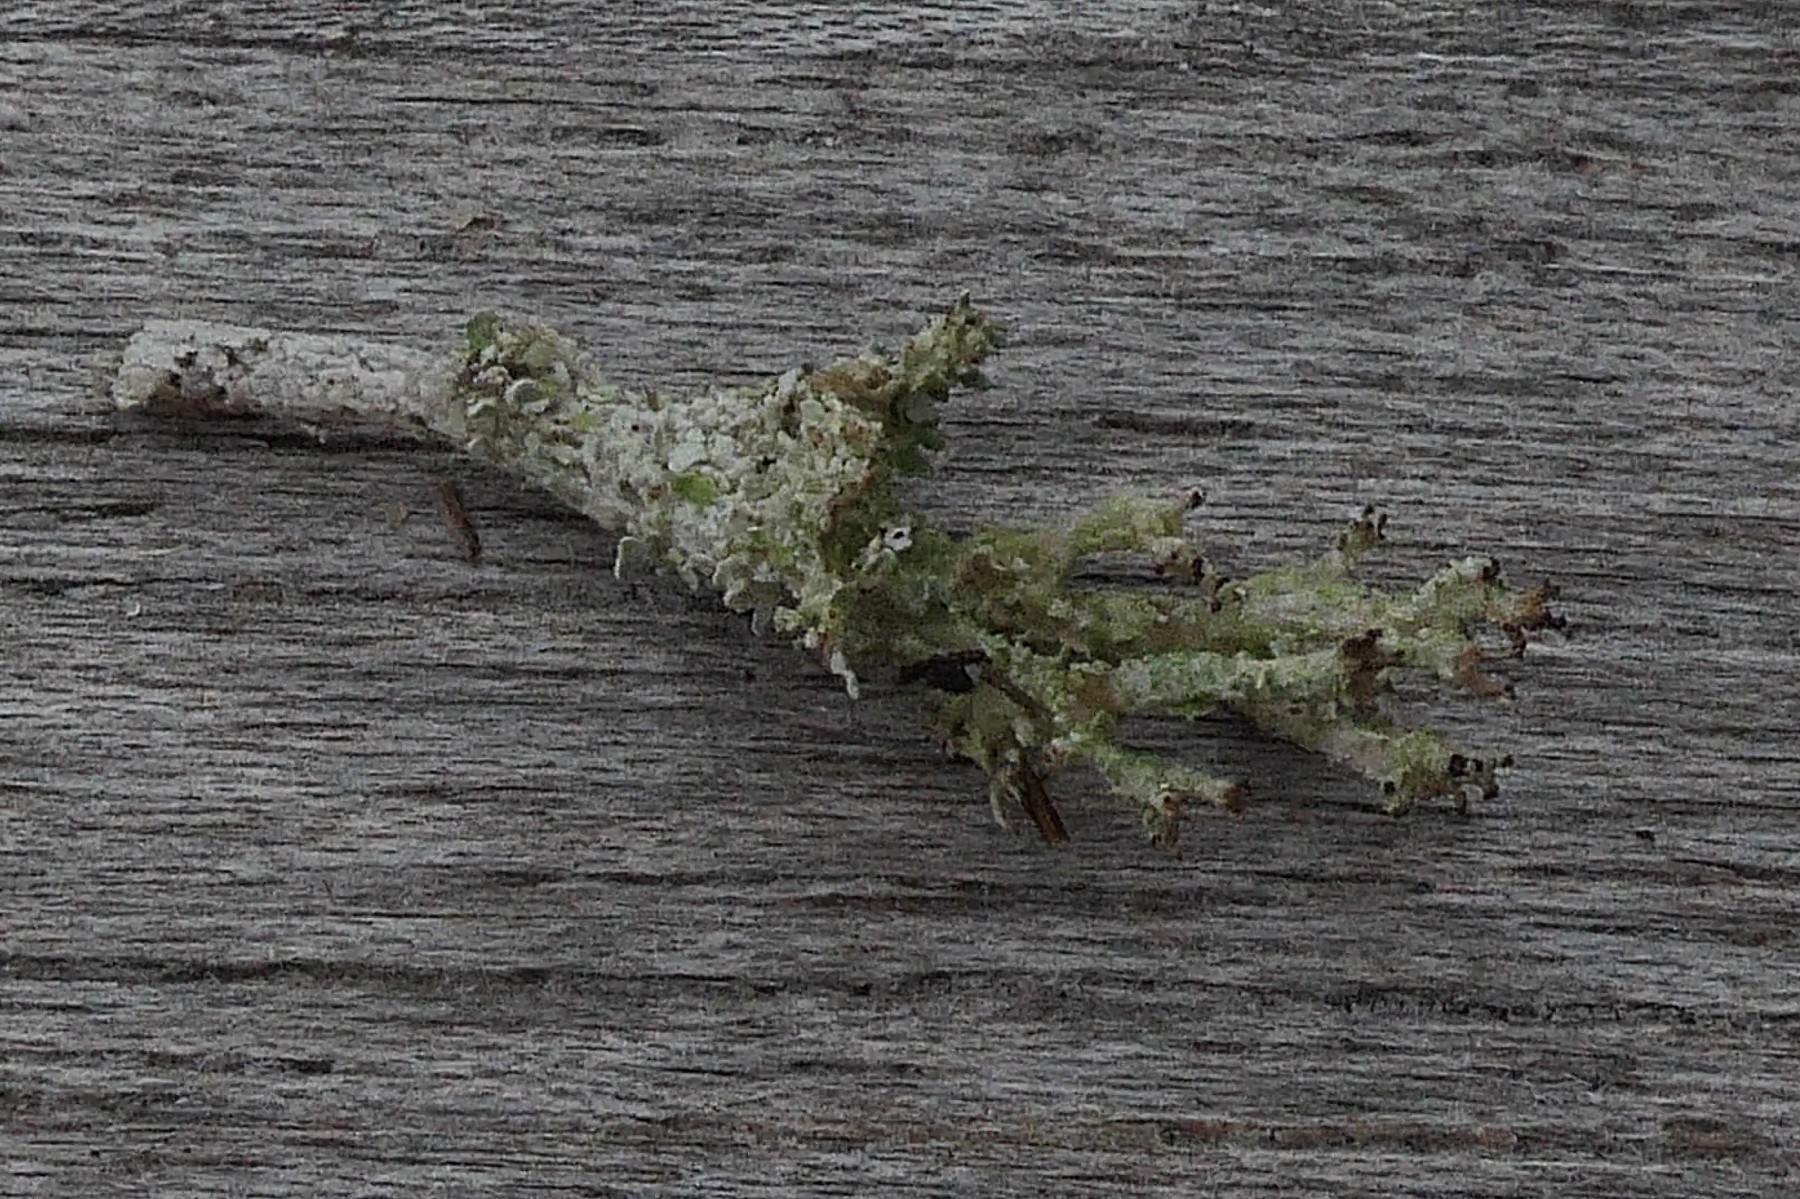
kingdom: Fungi
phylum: Ascomycota
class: Lecanoromycetes
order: Lecanorales
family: Cladoniaceae
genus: Cladonia
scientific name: Cladonia ramulosa
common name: kliddet bægerlav
